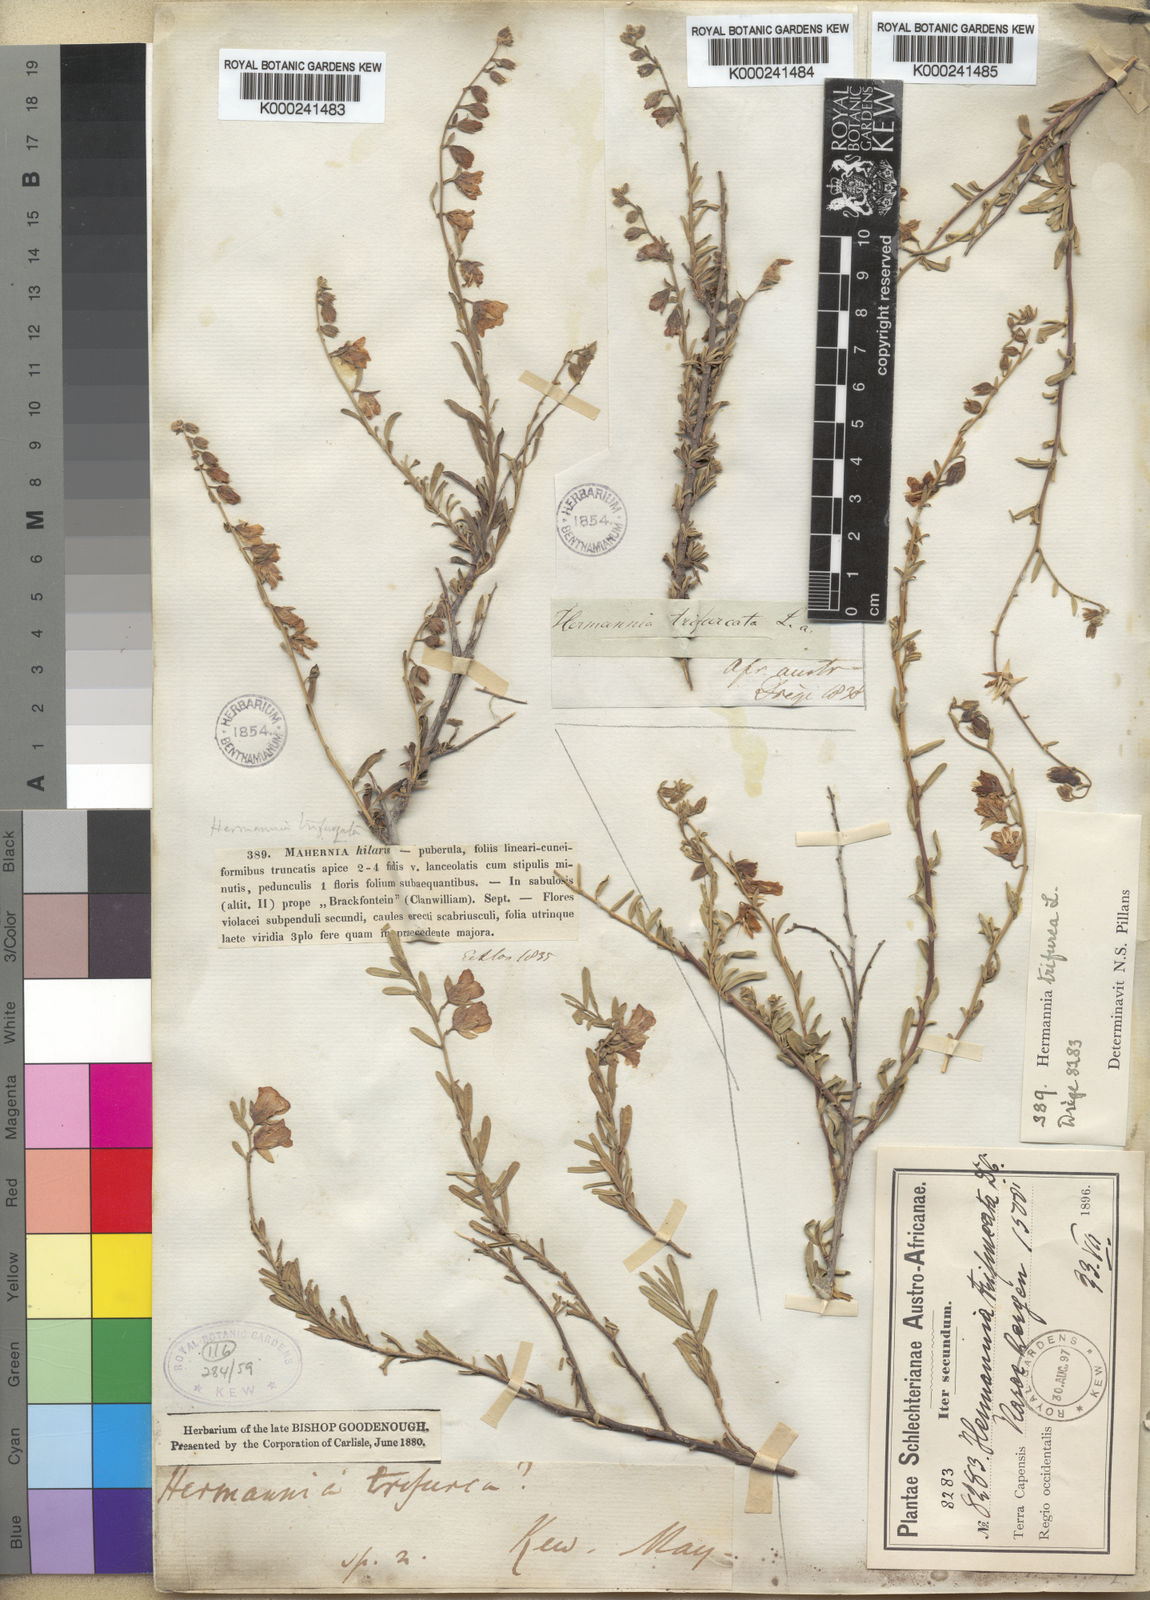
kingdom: Plantae
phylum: Tracheophyta
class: Magnoliopsida
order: Malvales
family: Malvaceae
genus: Hermannia
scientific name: Hermannia trifurca
